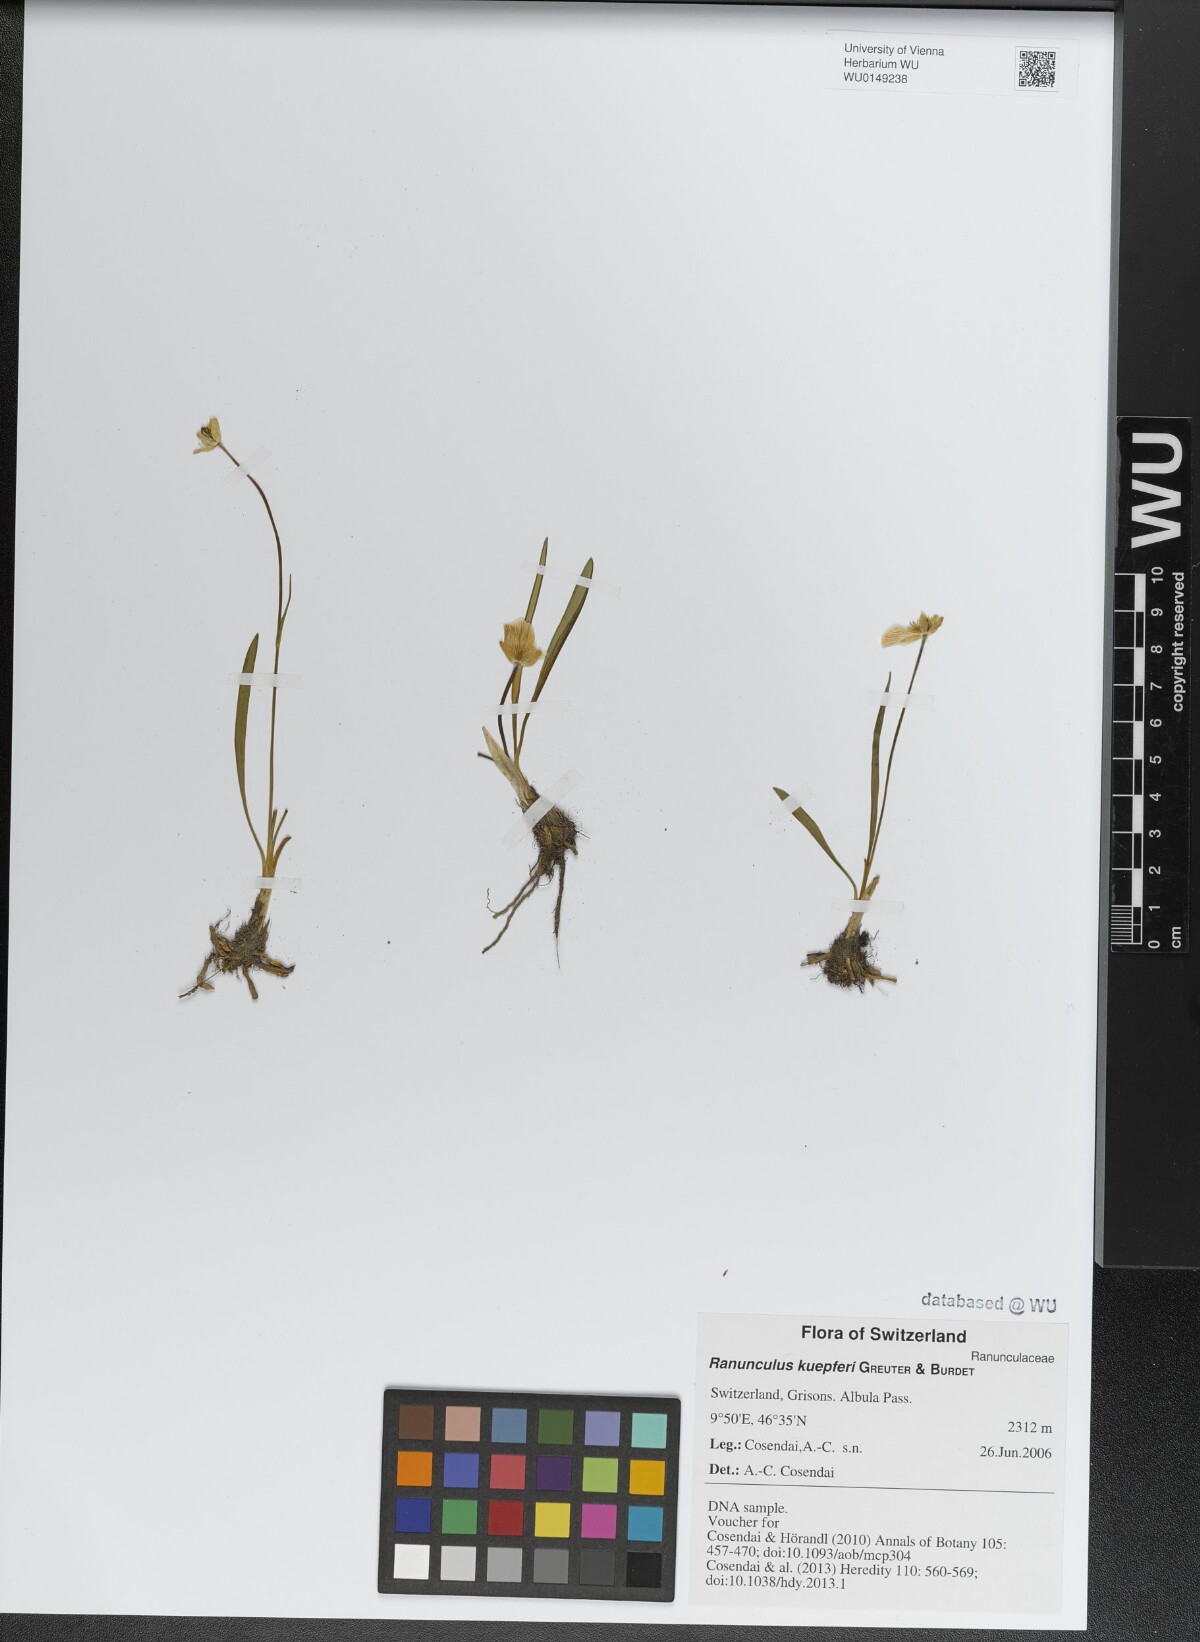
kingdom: Plantae
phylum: Tracheophyta
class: Magnoliopsida
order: Ranunculales
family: Ranunculaceae
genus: Ranunculus
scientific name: Ranunculus kuepferi
